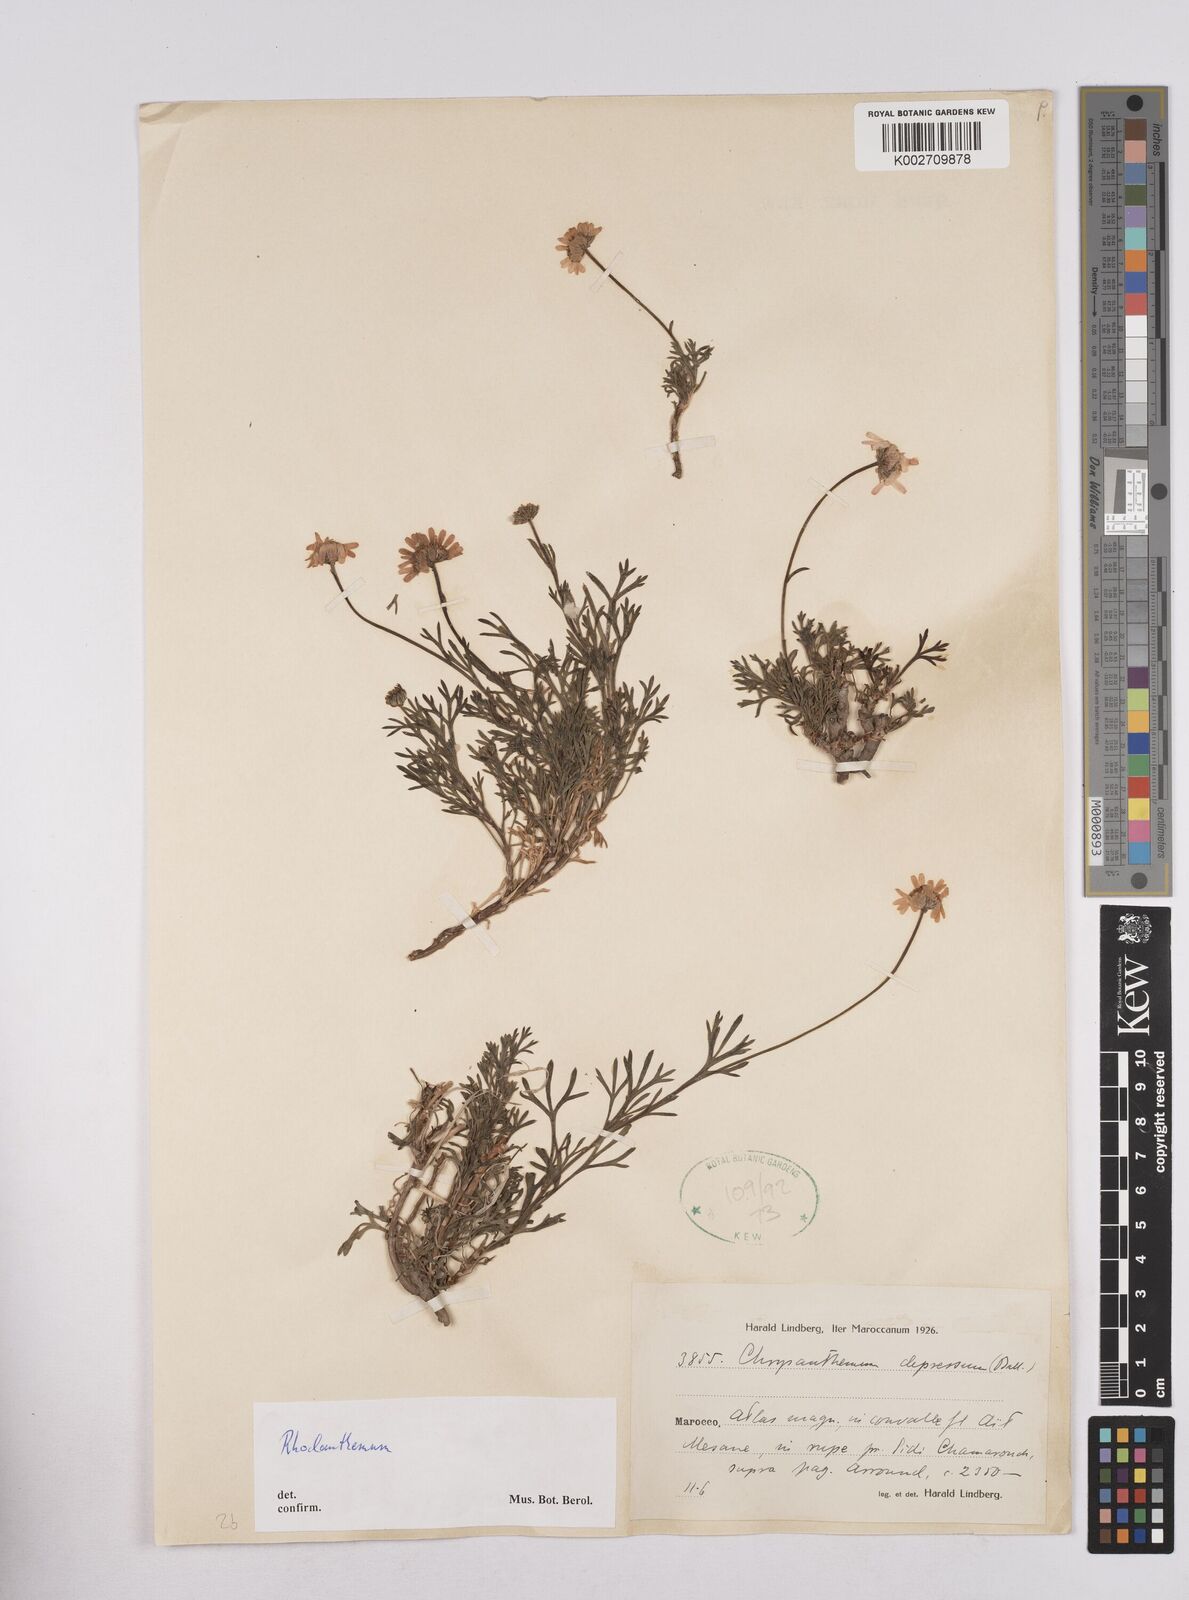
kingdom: Plantae
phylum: Tracheophyta
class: Magnoliopsida
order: Asterales
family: Asteraceae
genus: Rhodanthemum
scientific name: Rhodanthemum
